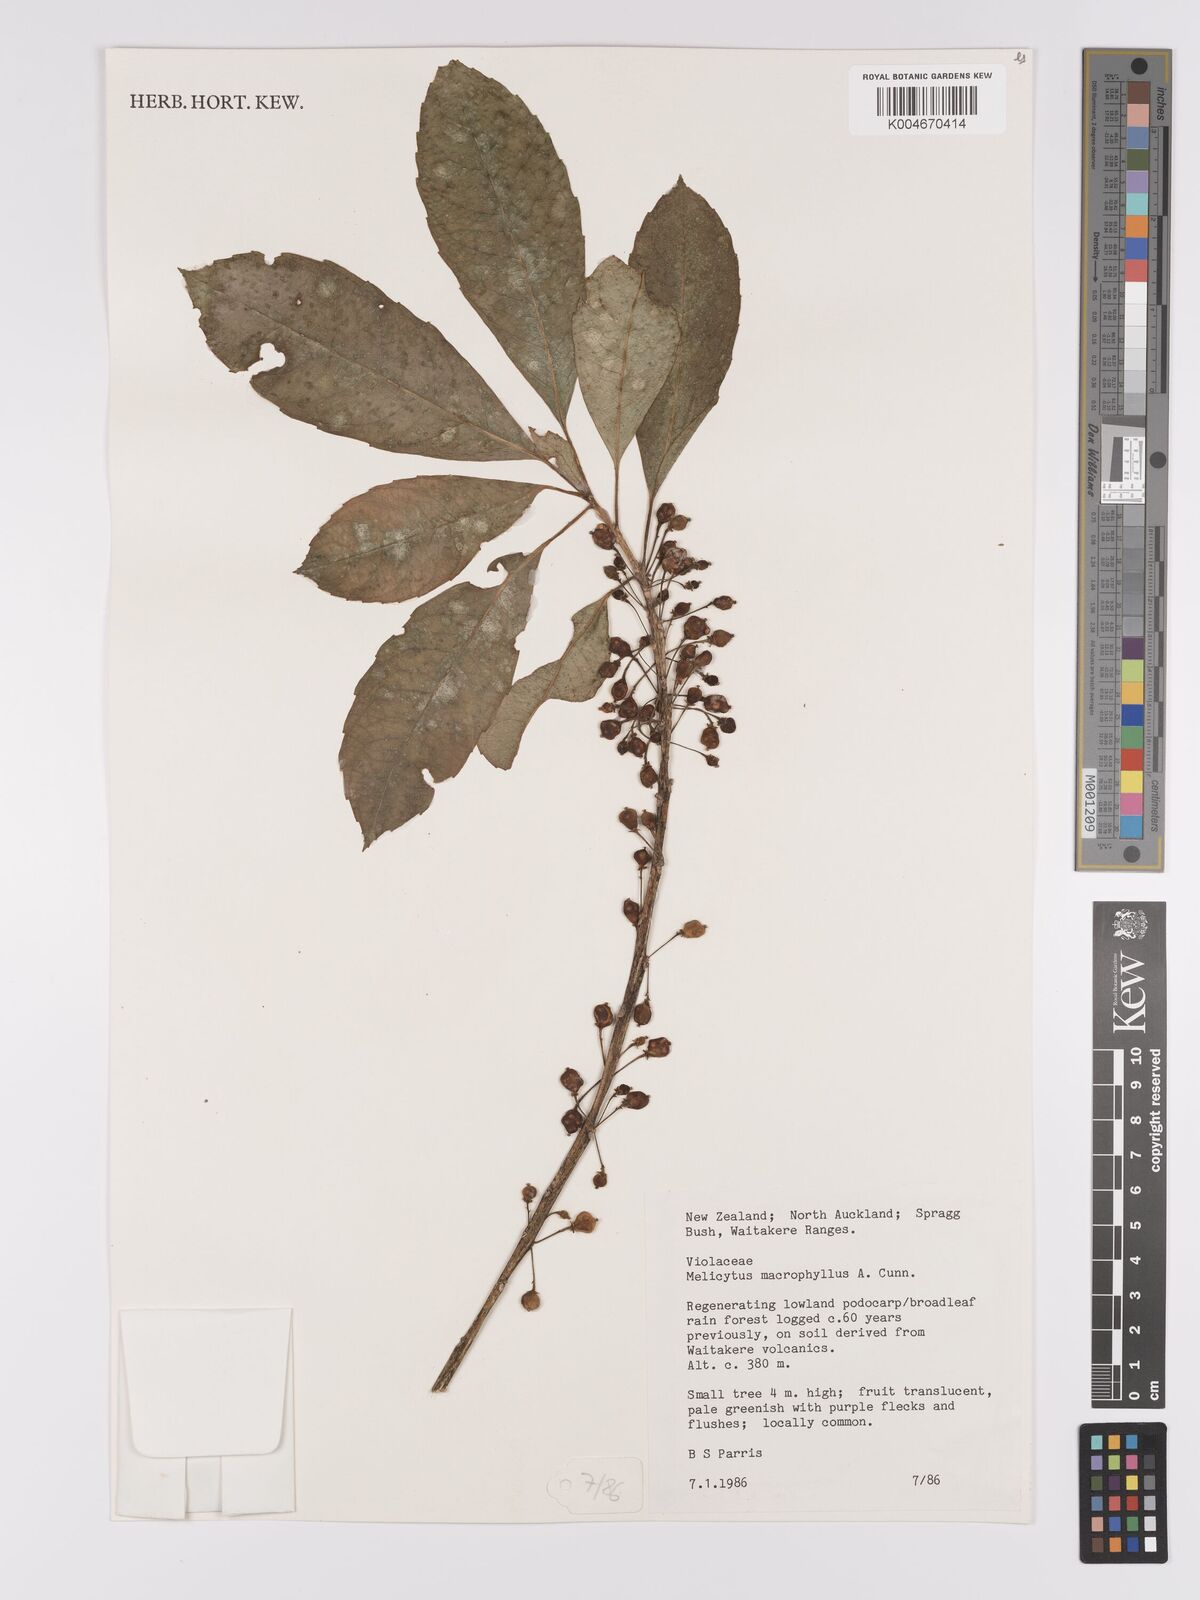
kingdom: Plantae
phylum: Tracheophyta
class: Magnoliopsida
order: Malpighiales
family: Violaceae
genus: Melicytus
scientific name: Melicytus macrophyllus
